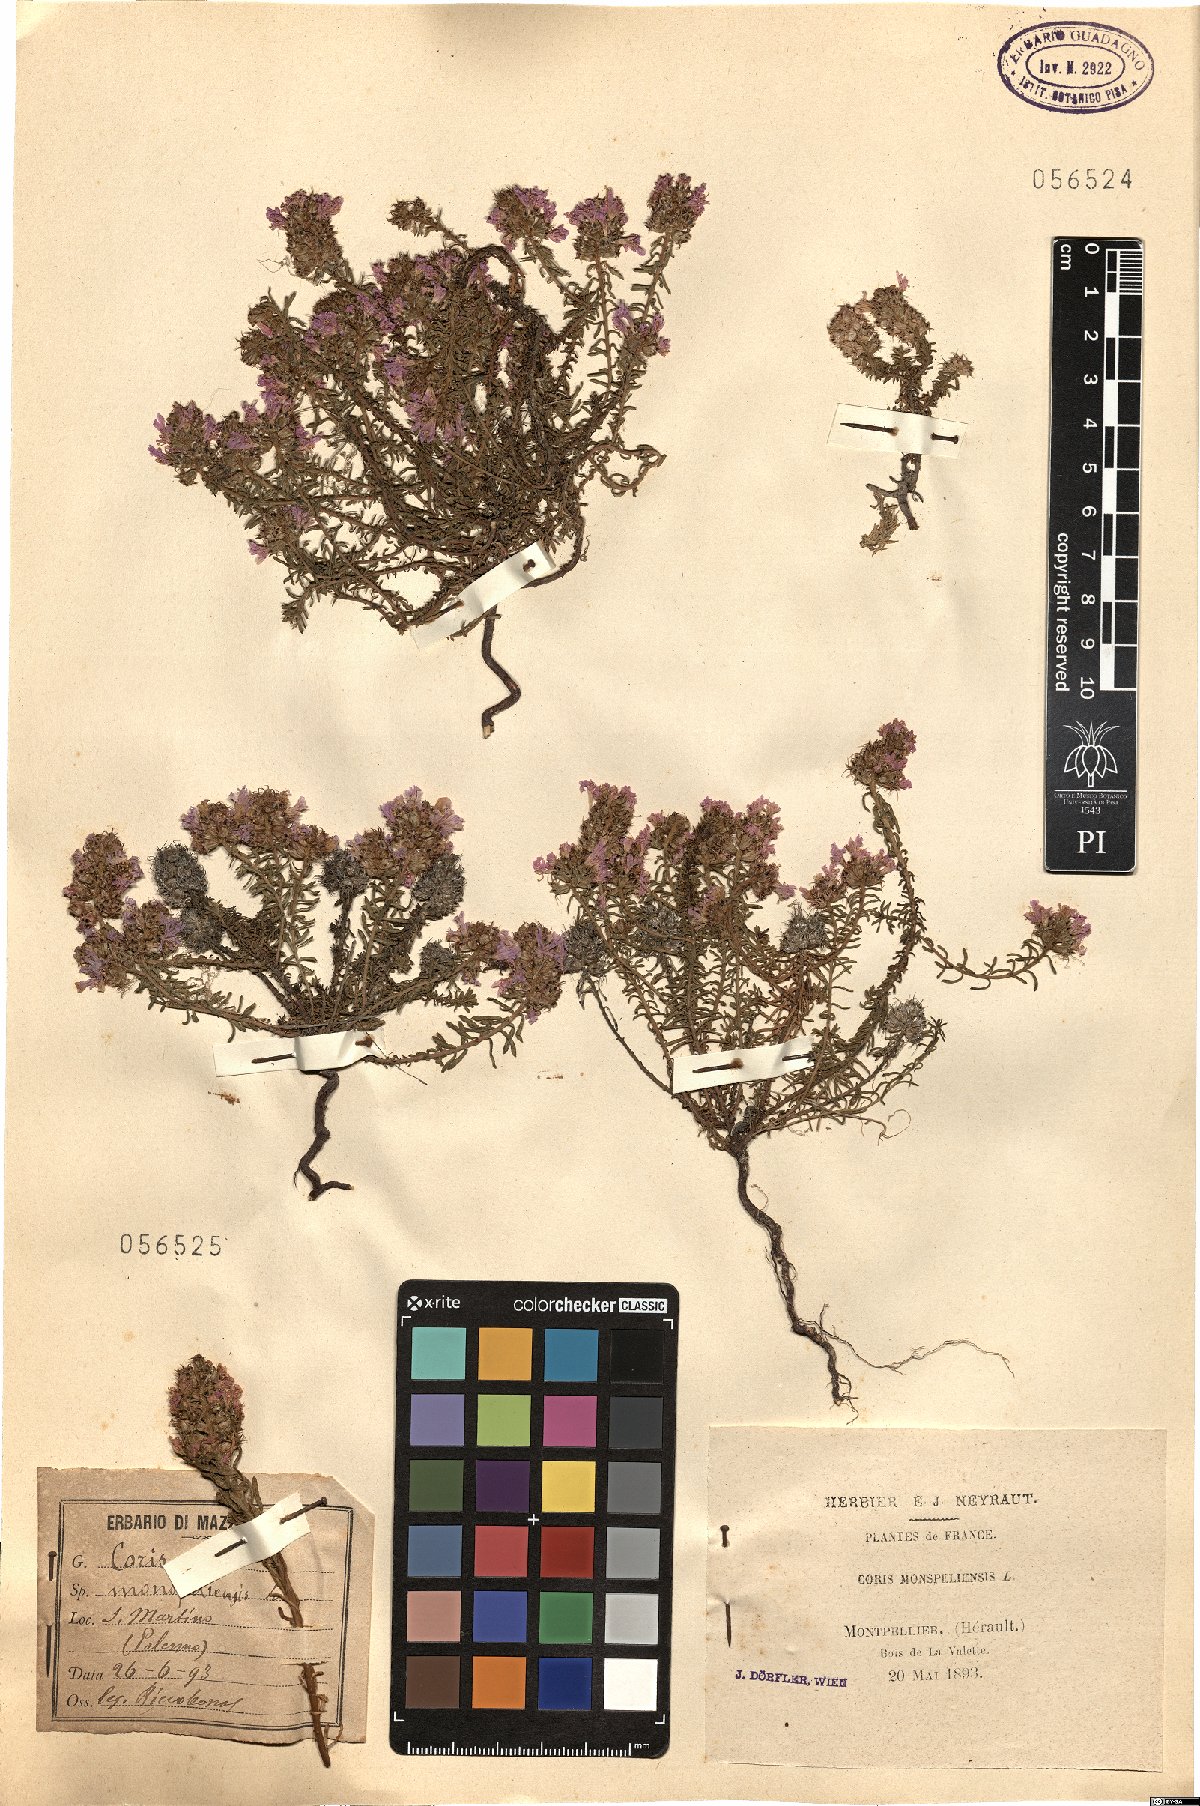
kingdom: Plantae
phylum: Tracheophyta
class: Magnoliopsida
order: Ericales
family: Primulaceae
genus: Coris
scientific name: Coris monspeliensis
